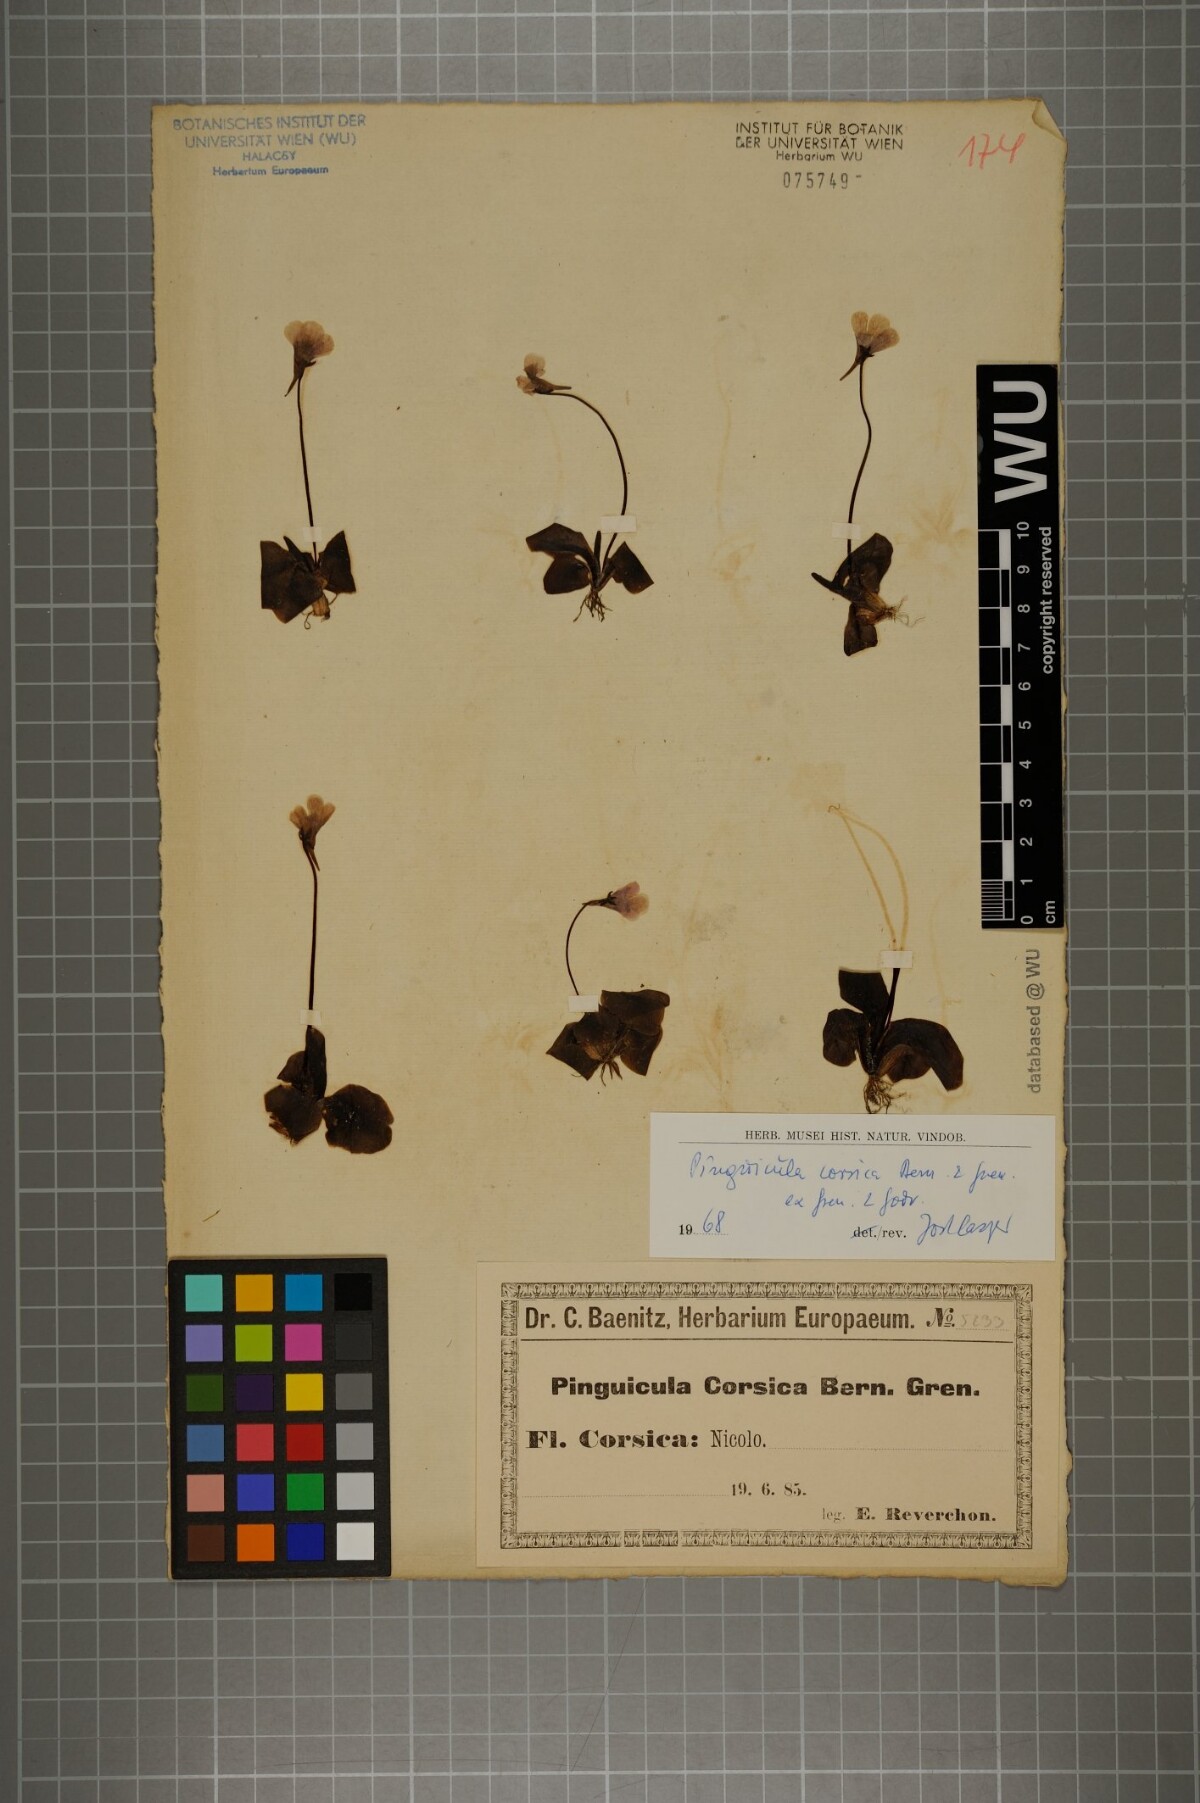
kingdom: Plantae
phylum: Tracheophyta
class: Magnoliopsida
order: Lamiales
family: Lentibulariaceae
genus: Pinguicula
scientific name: Pinguicula corsica
